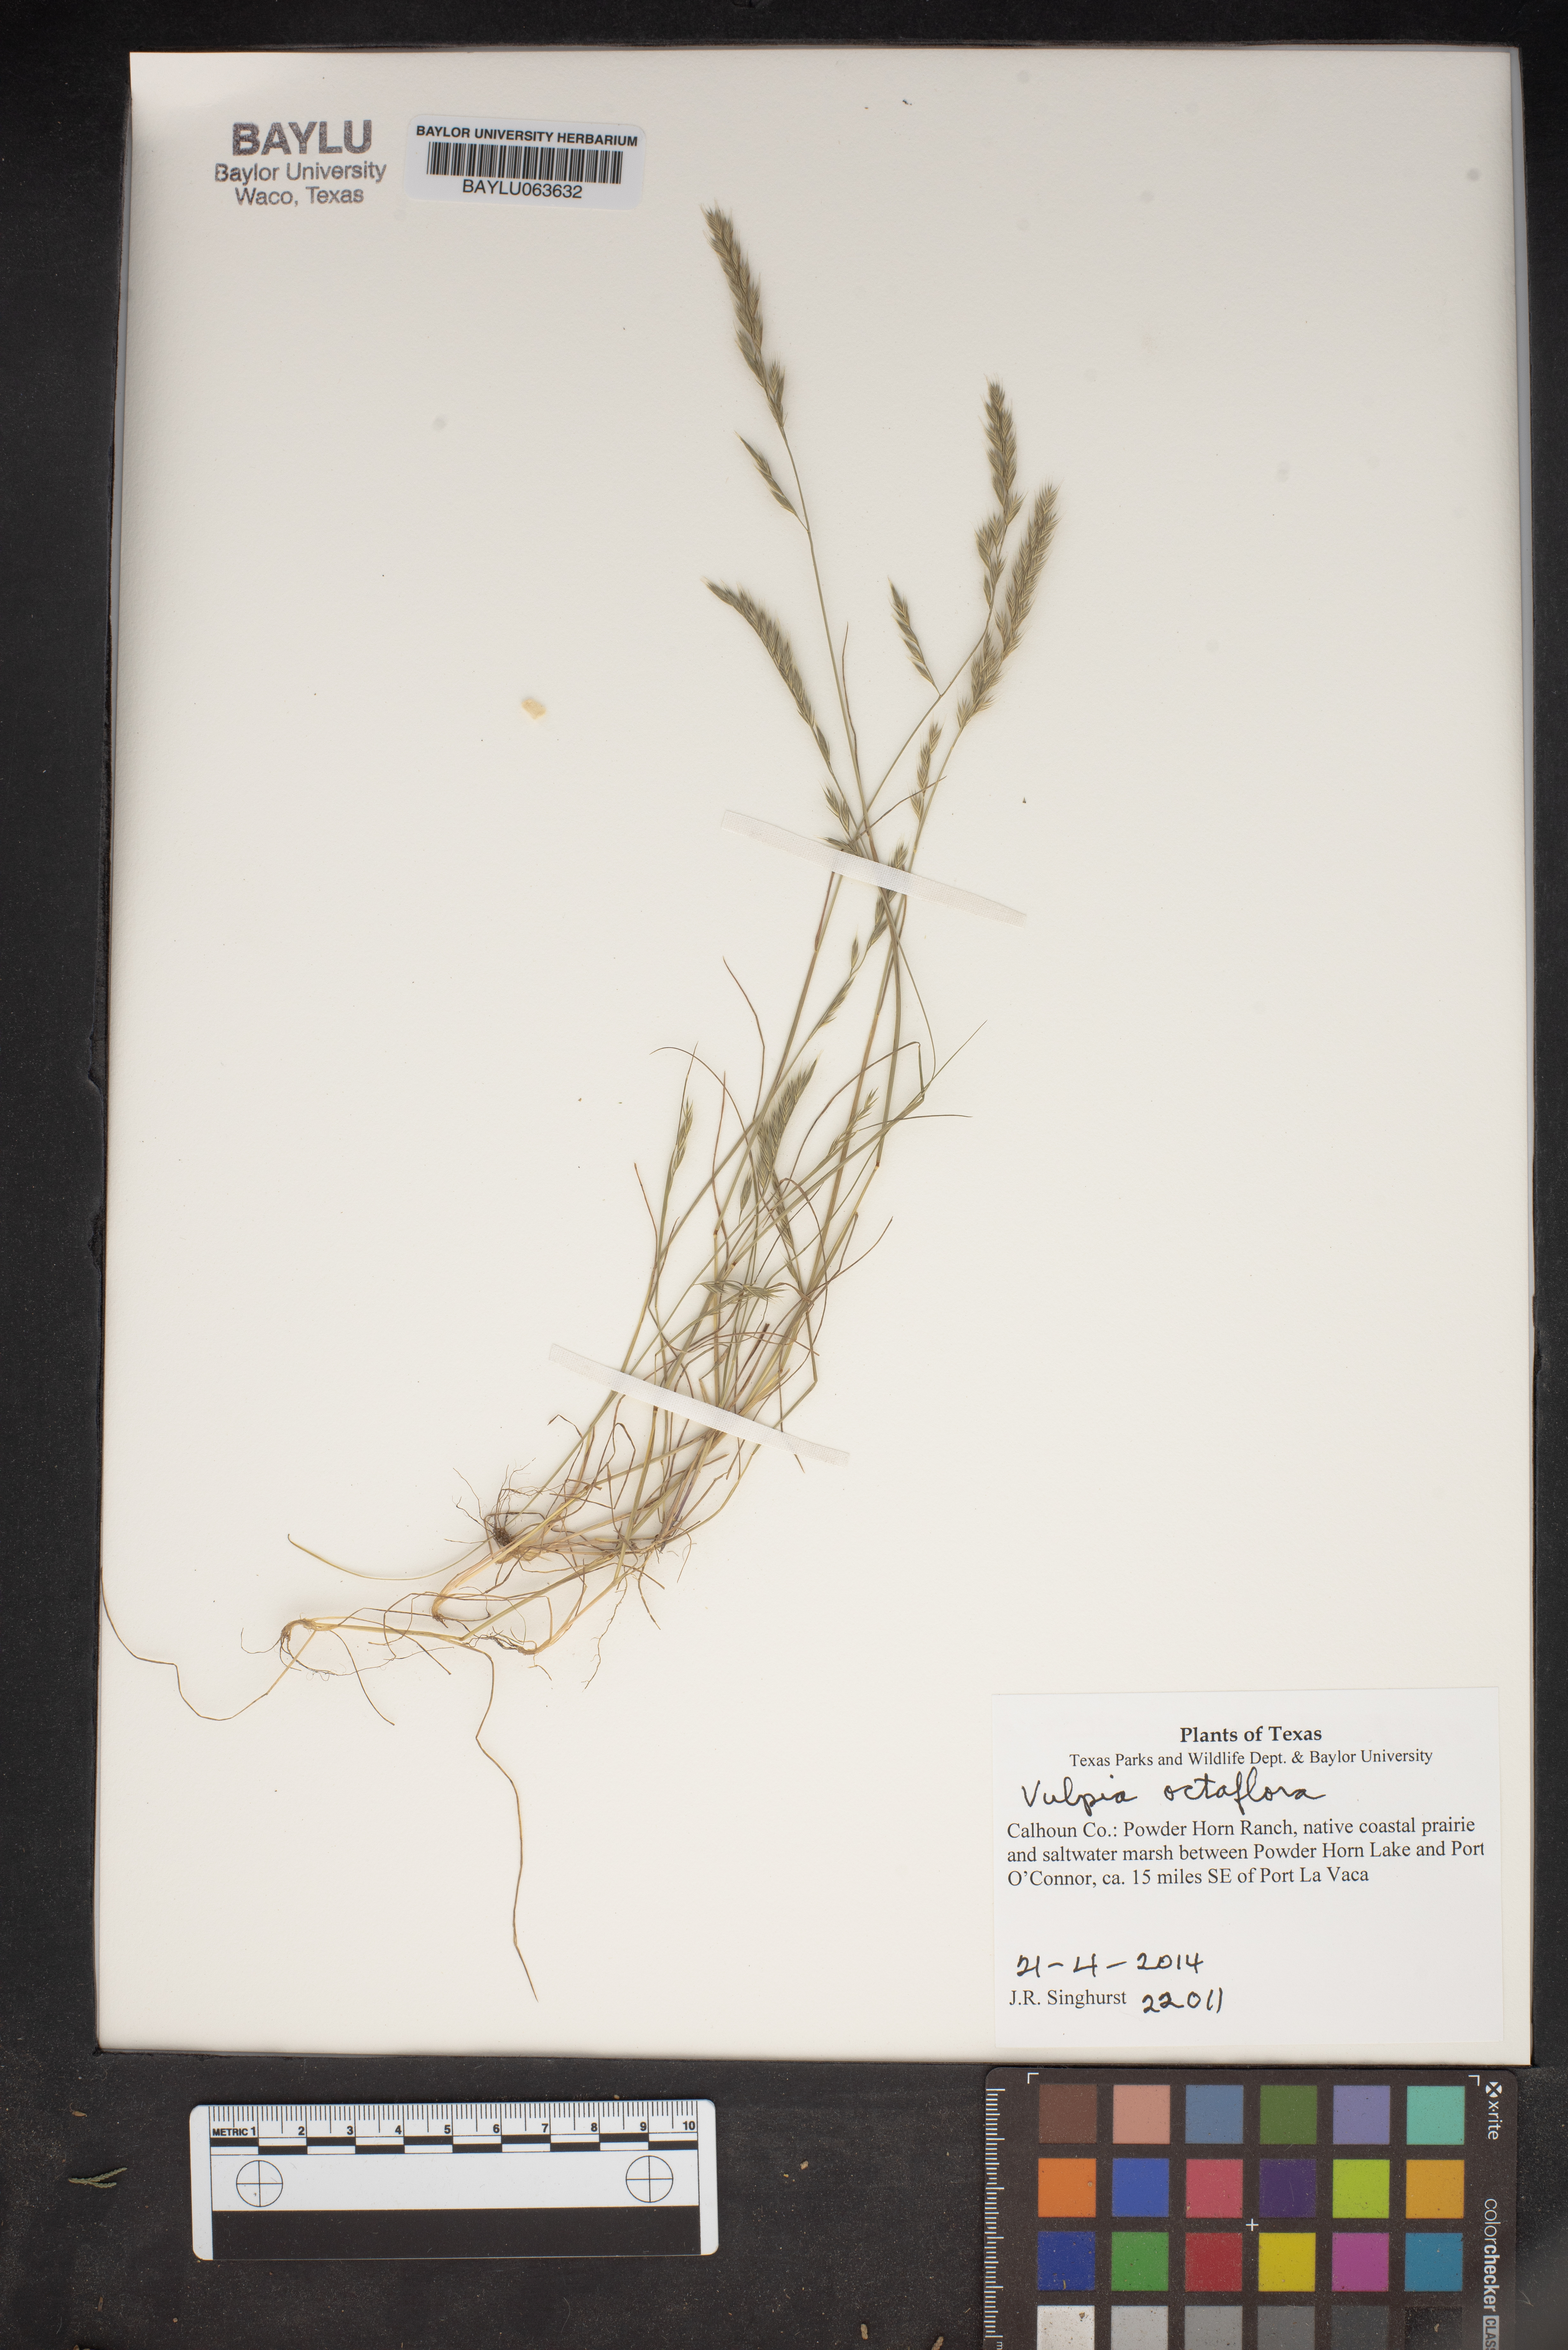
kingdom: Plantae
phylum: Tracheophyta
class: Liliopsida
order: Poales
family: Poaceae
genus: Festuca
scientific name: Festuca octoflora
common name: Sixweeks grass
